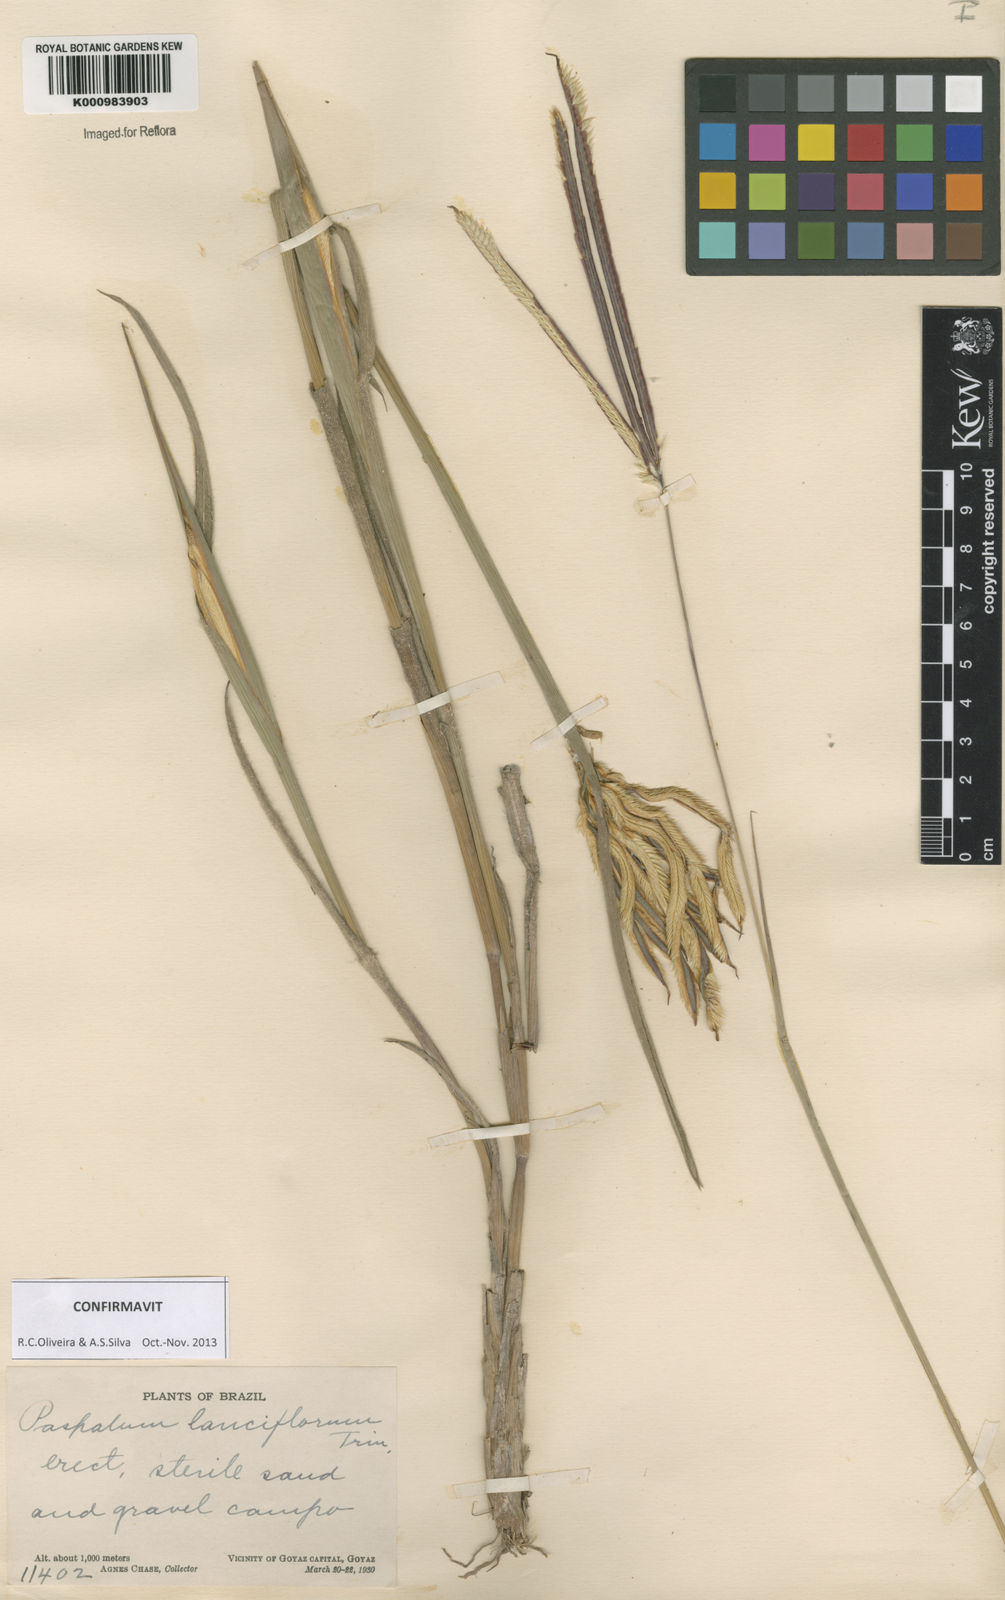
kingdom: Plantae
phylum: Tracheophyta
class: Liliopsida
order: Poales
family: Poaceae
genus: Paspalum
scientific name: Paspalum
